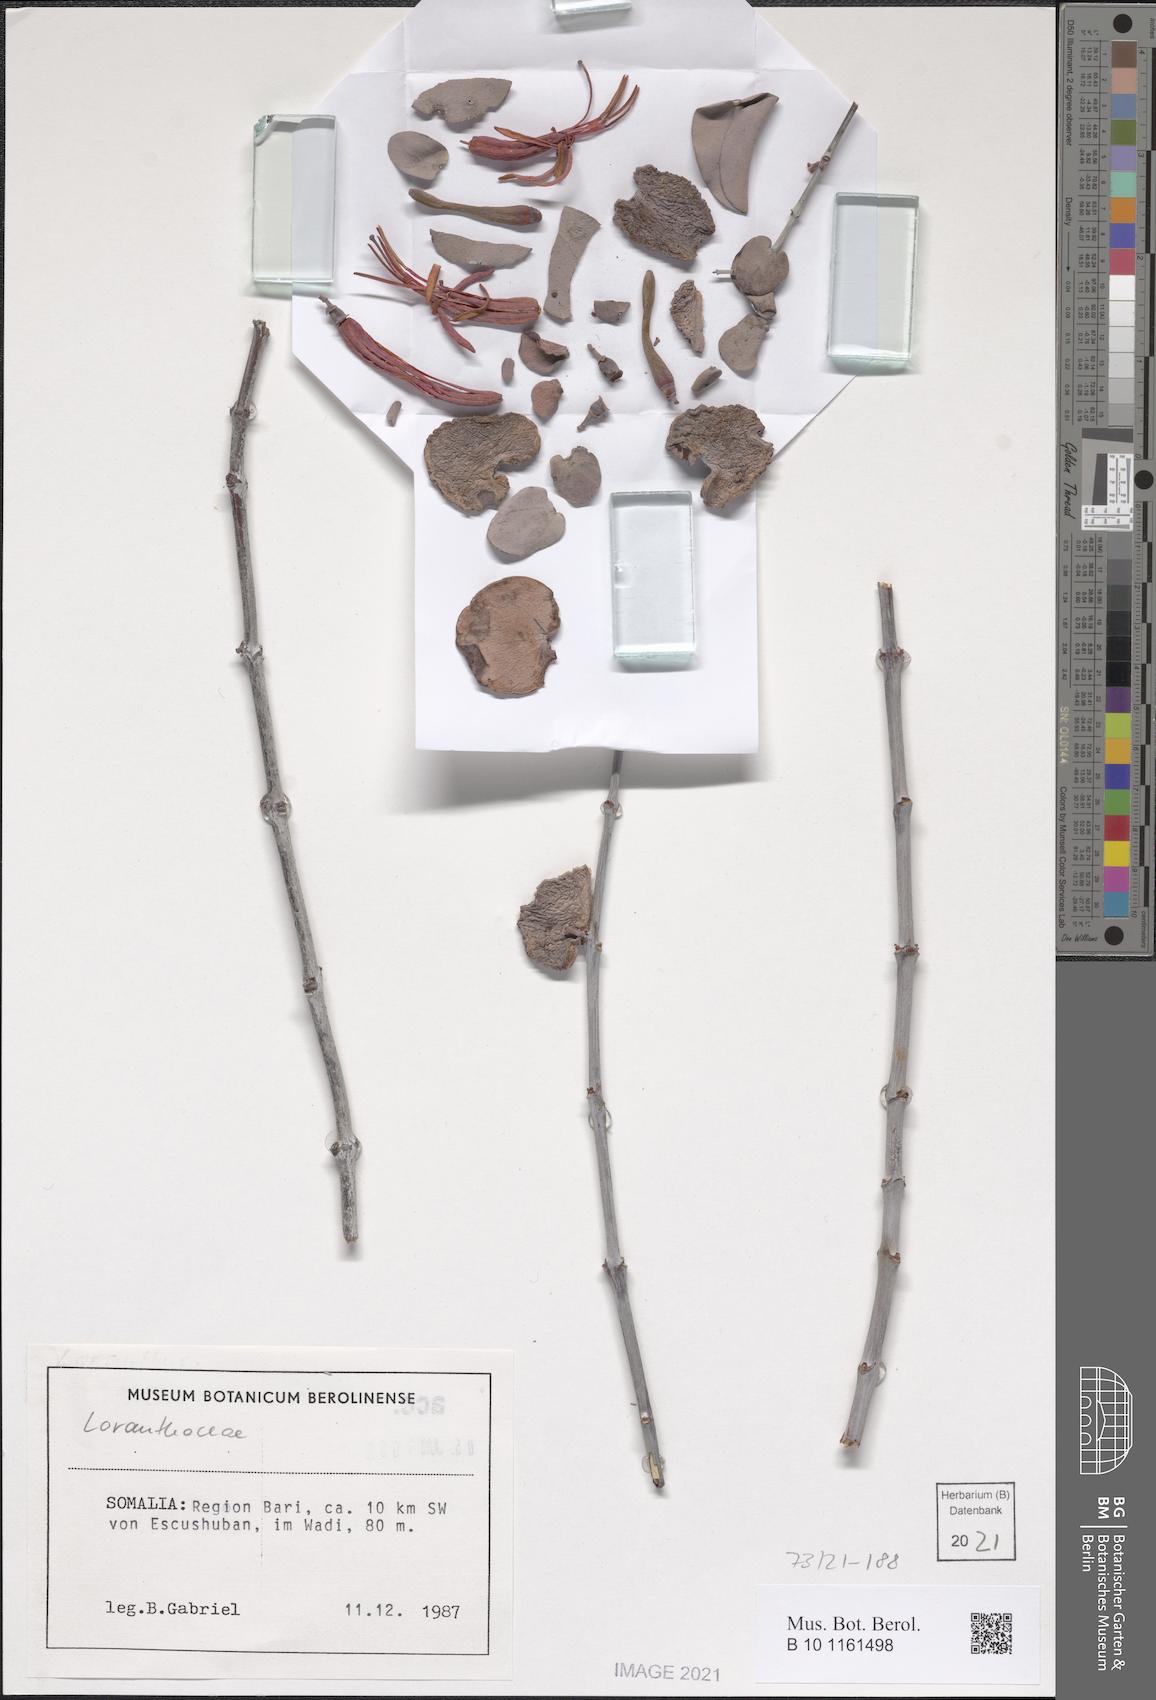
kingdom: Plantae
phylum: Tracheophyta
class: Magnoliopsida
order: Santalales
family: Loranthaceae
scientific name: Loranthaceae
